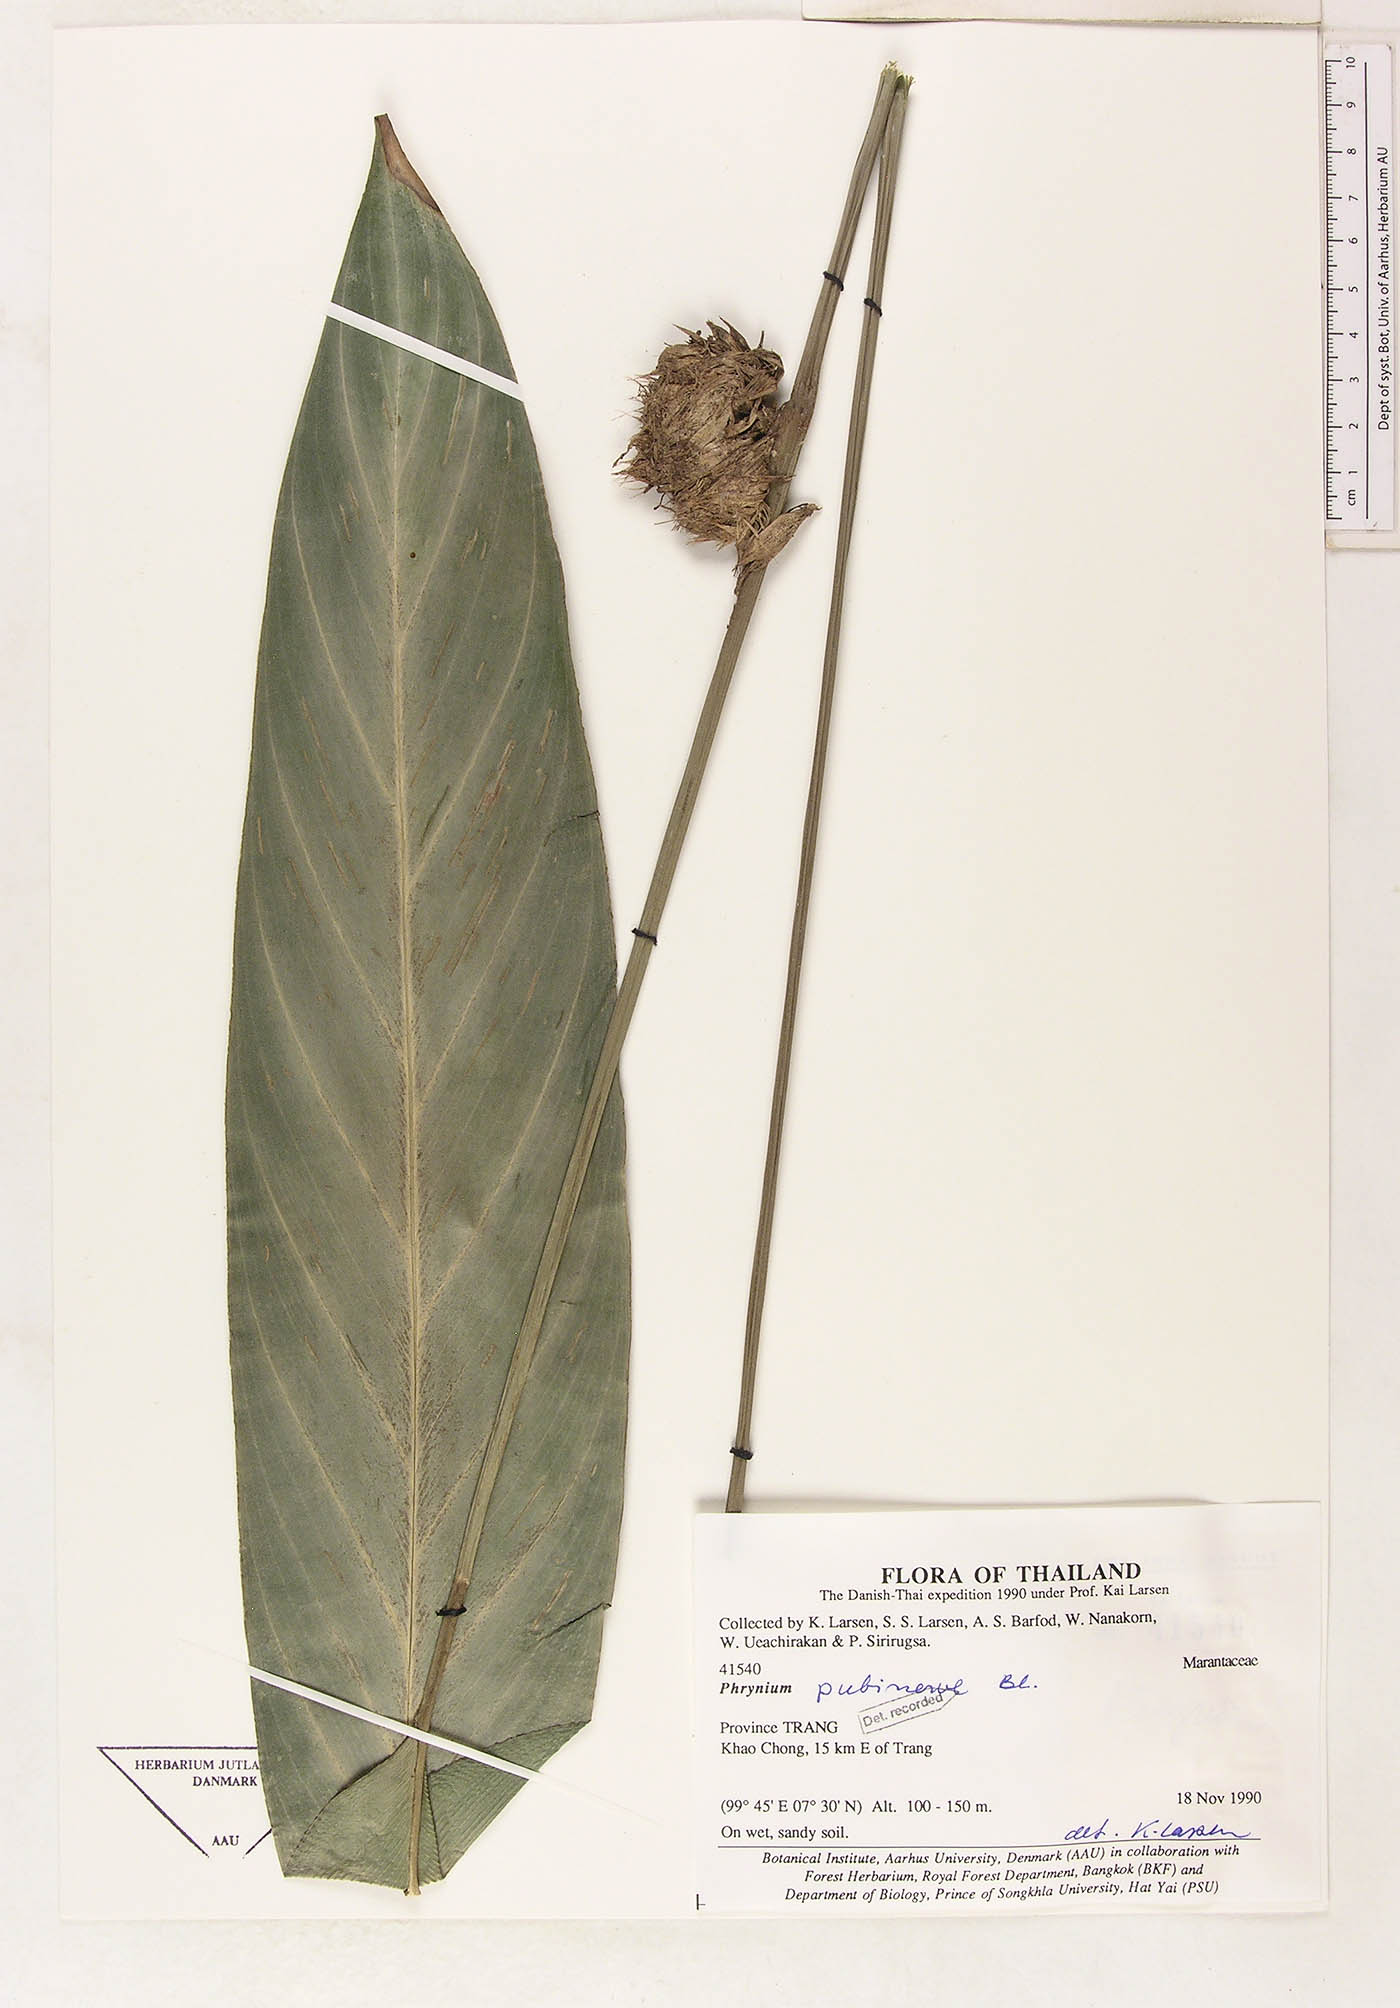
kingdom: Plantae
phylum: Tracheophyta
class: Liliopsida
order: Zingiberales
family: Marantaceae
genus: Phrynium
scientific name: Phrynium pubinerve
